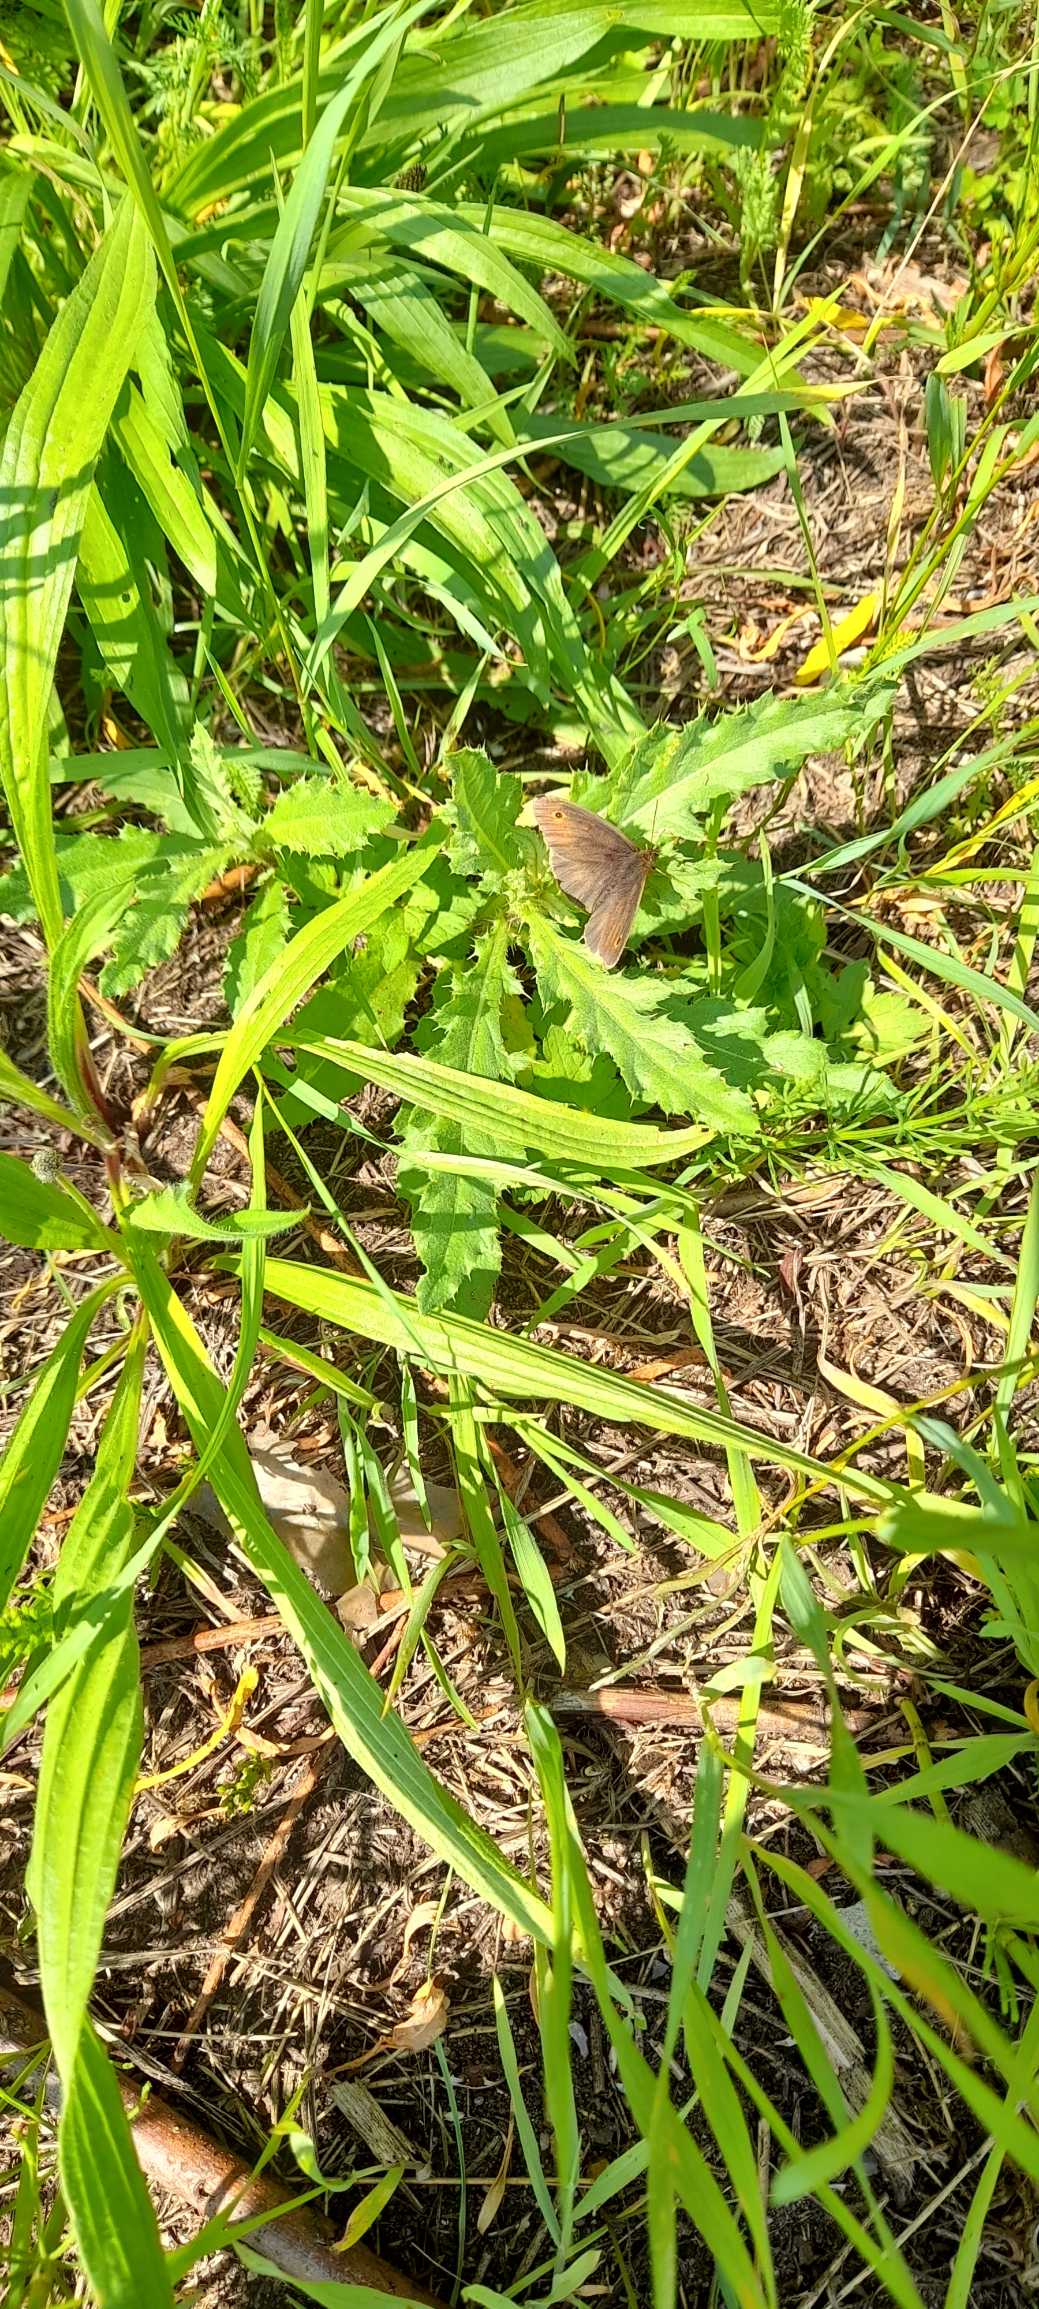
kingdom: Animalia
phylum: Arthropoda
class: Insecta
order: Lepidoptera
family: Nymphalidae
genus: Maniola
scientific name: Maniola jurtina
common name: Græsrandøje
